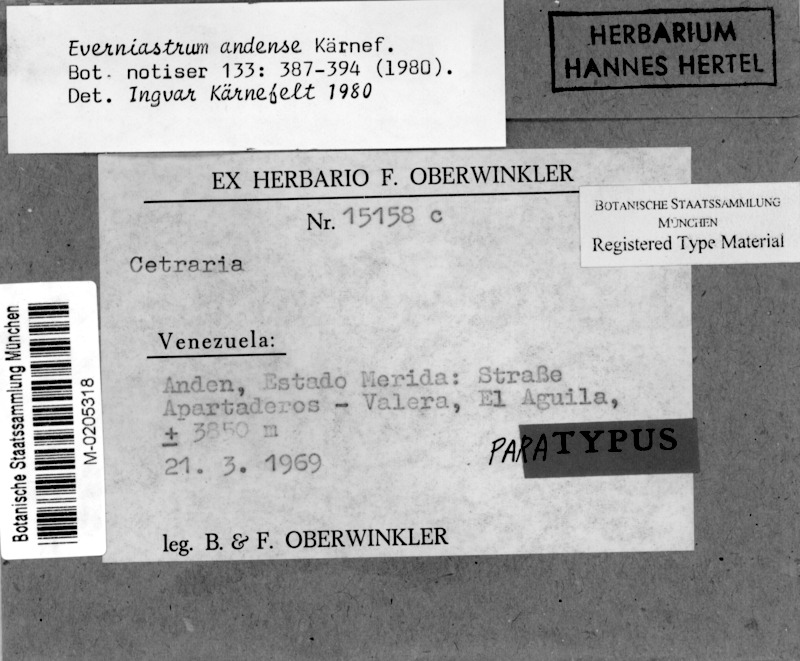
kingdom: Fungi
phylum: Ascomycota
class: Lecanoromycetes
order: Lecanorales
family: Parmeliaceae
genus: Hypotrachyna
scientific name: Hypotrachyna kaernefeltii
